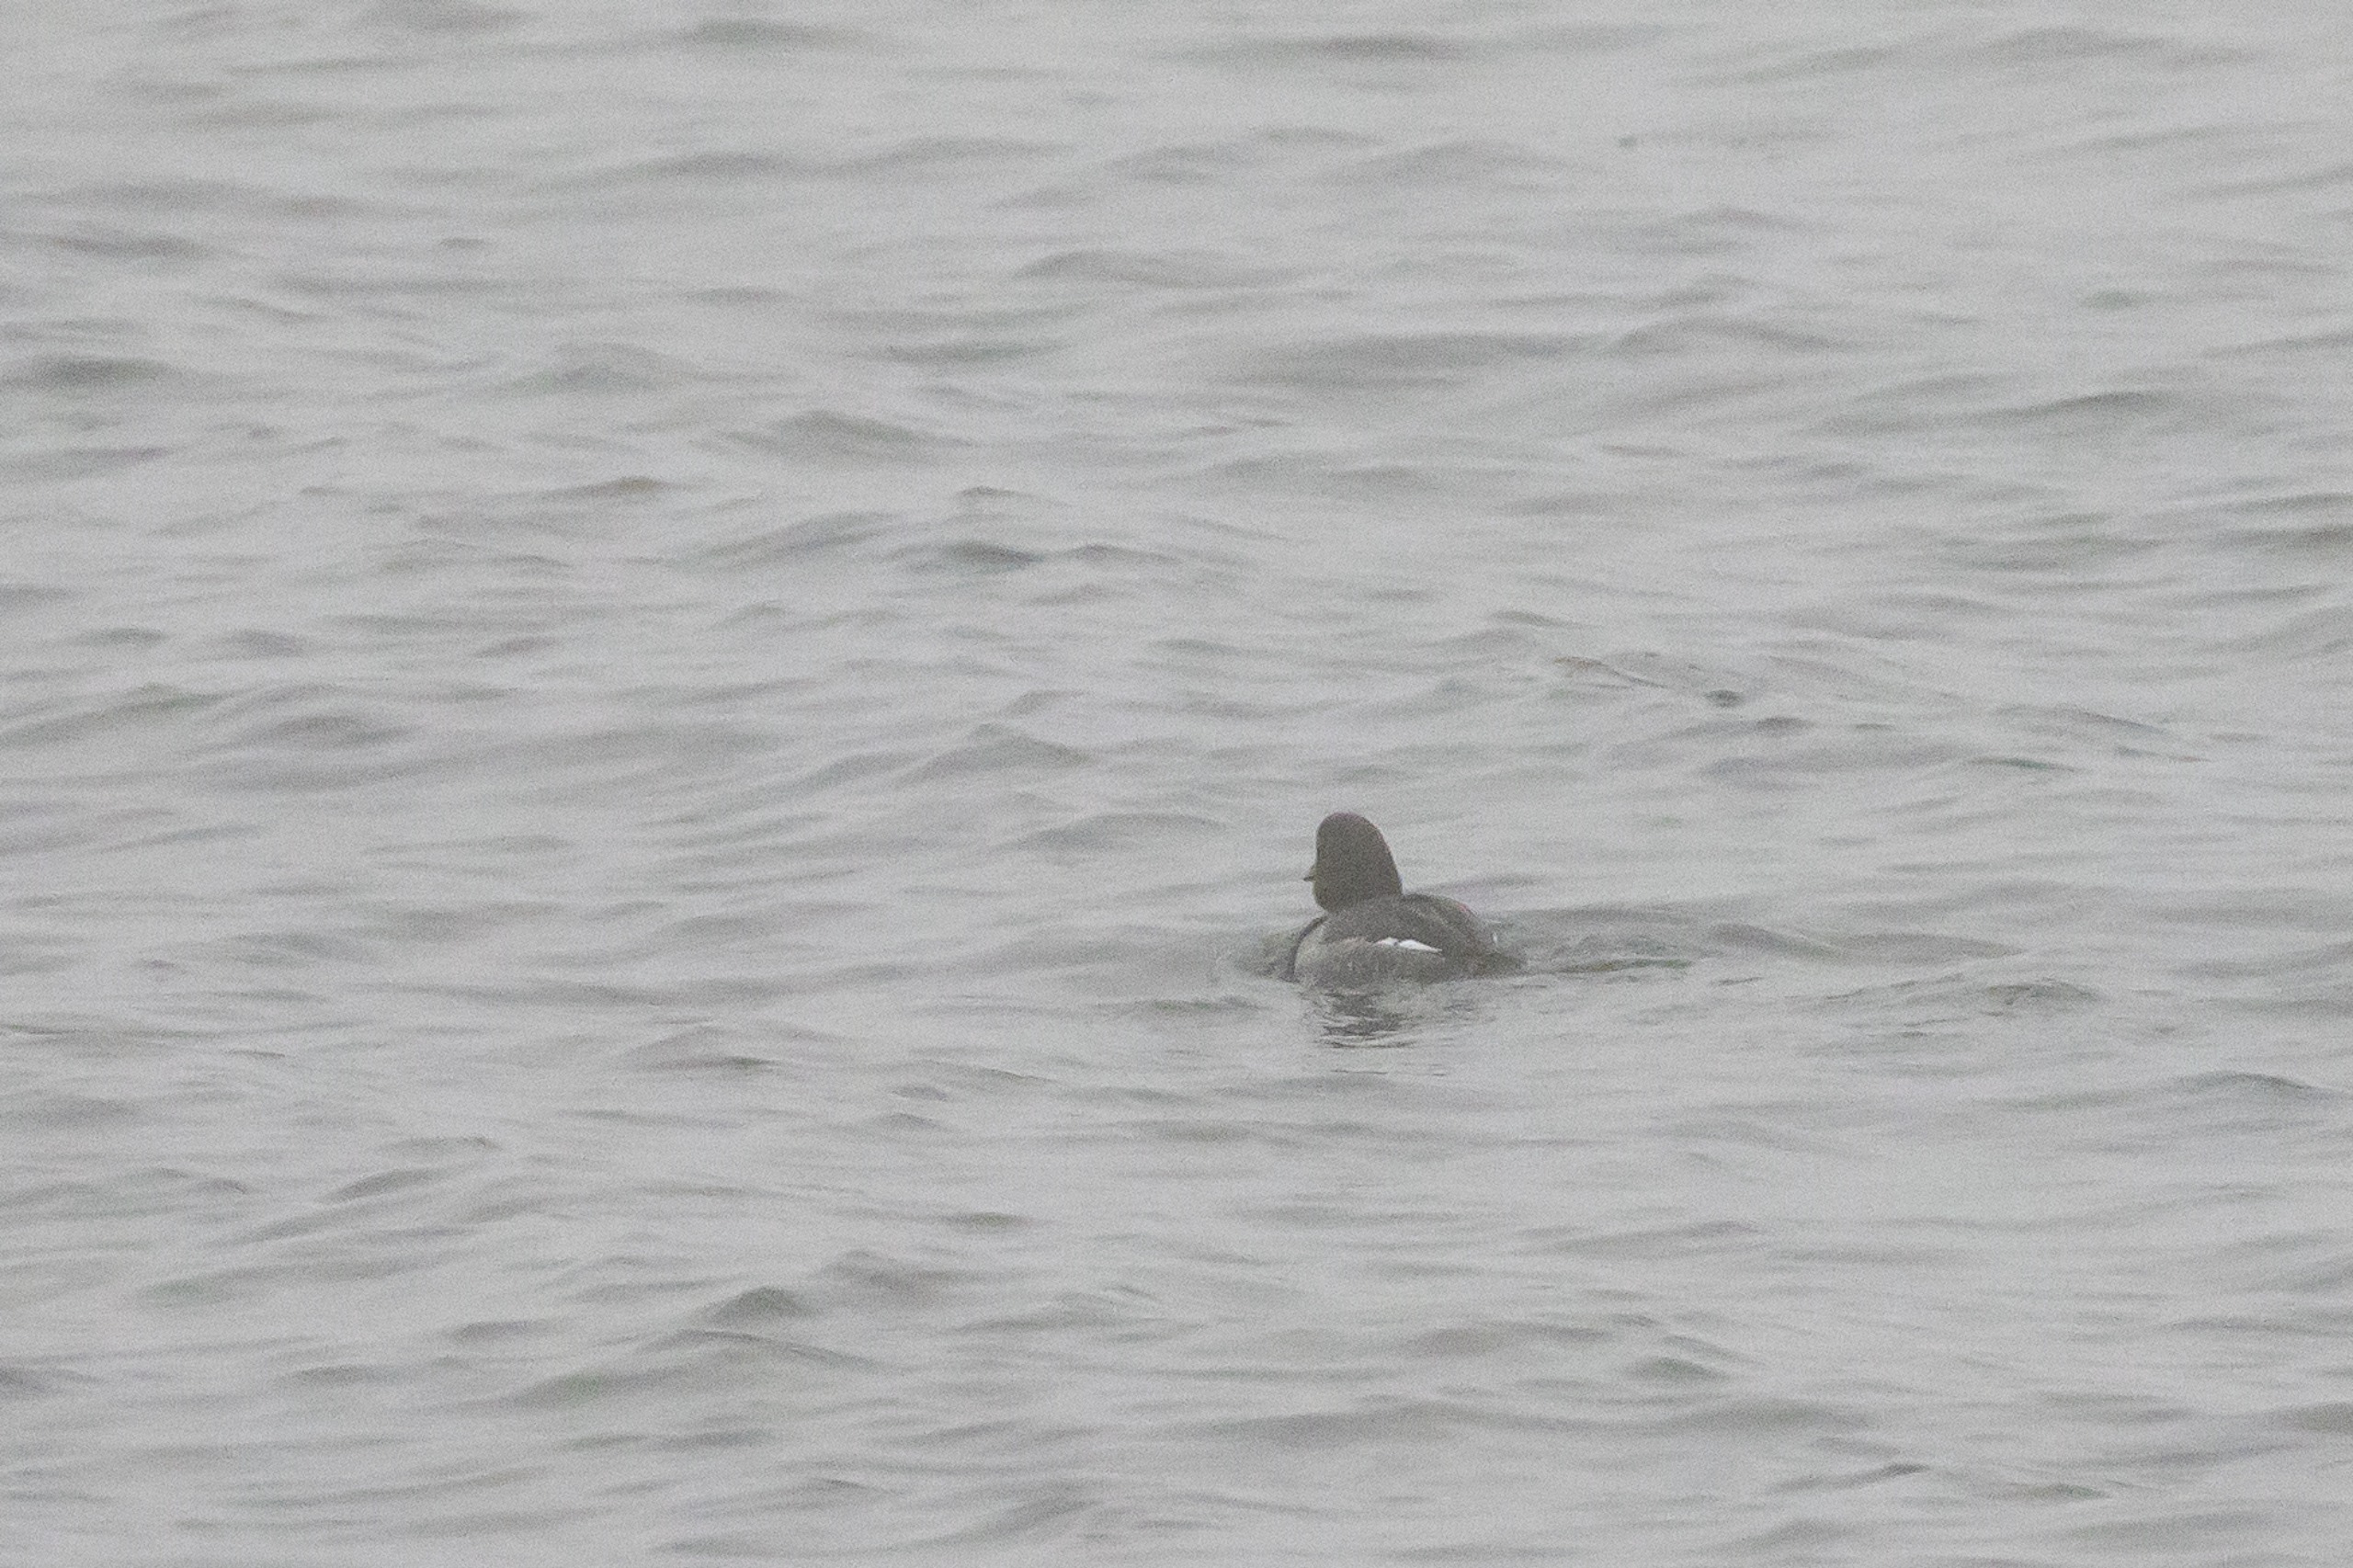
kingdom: Animalia
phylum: Chordata
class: Aves
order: Anseriformes
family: Anatidae
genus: Bucephala
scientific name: Bucephala clangula
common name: Hvinand
